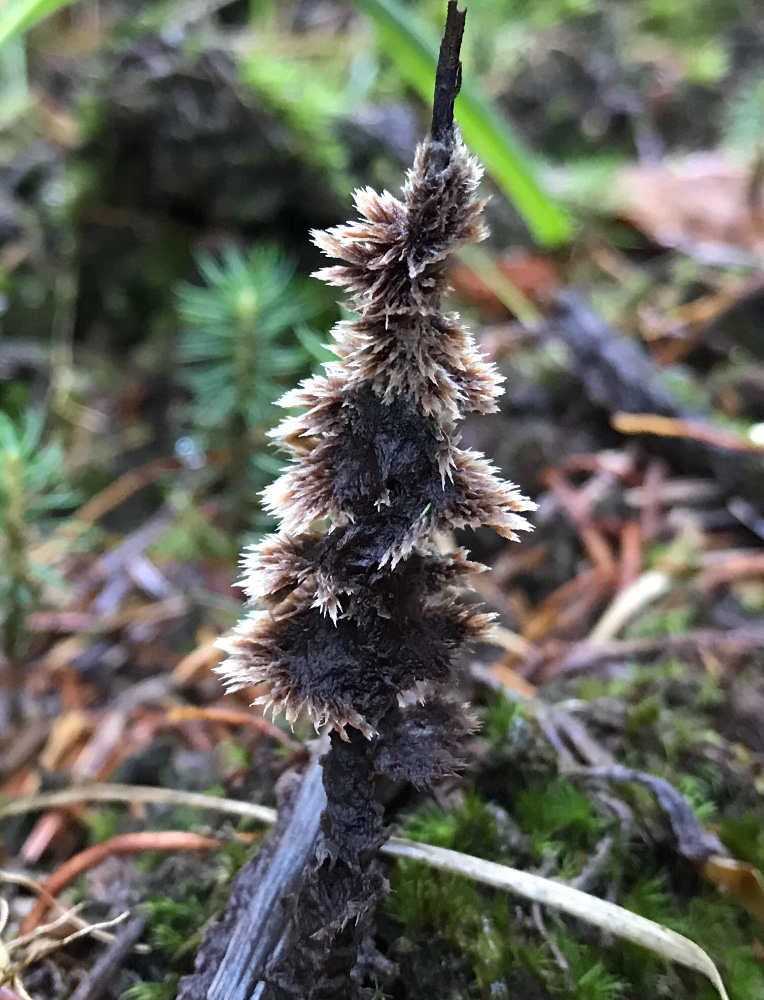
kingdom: Fungi
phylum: Basidiomycota
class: Agaricomycetes
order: Thelephorales
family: Thelephoraceae
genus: Thelephora
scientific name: Thelephora terrestris
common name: fliget frynsesvamp
